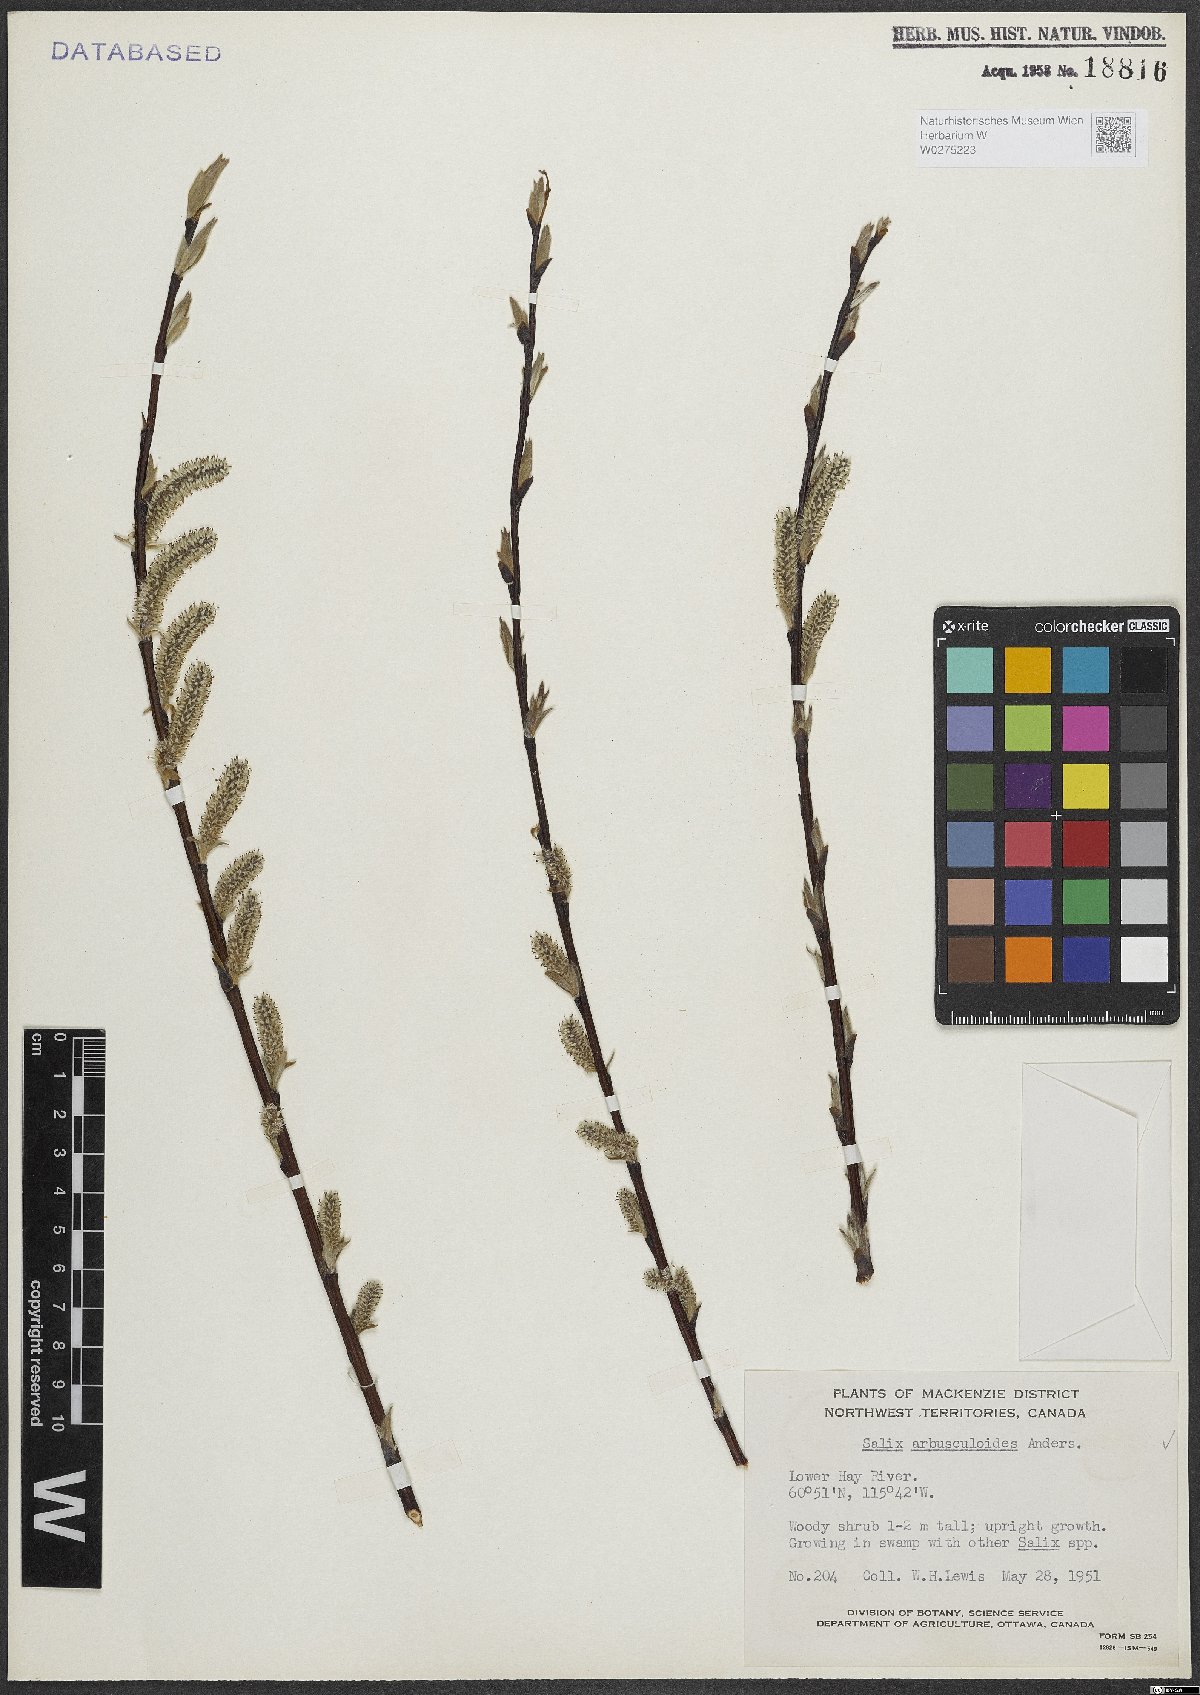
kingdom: Plantae
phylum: Tracheophyta
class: Magnoliopsida
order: Malpighiales
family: Salicaceae
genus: Salix
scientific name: Salix arbusculoides
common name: Little-tree willow
